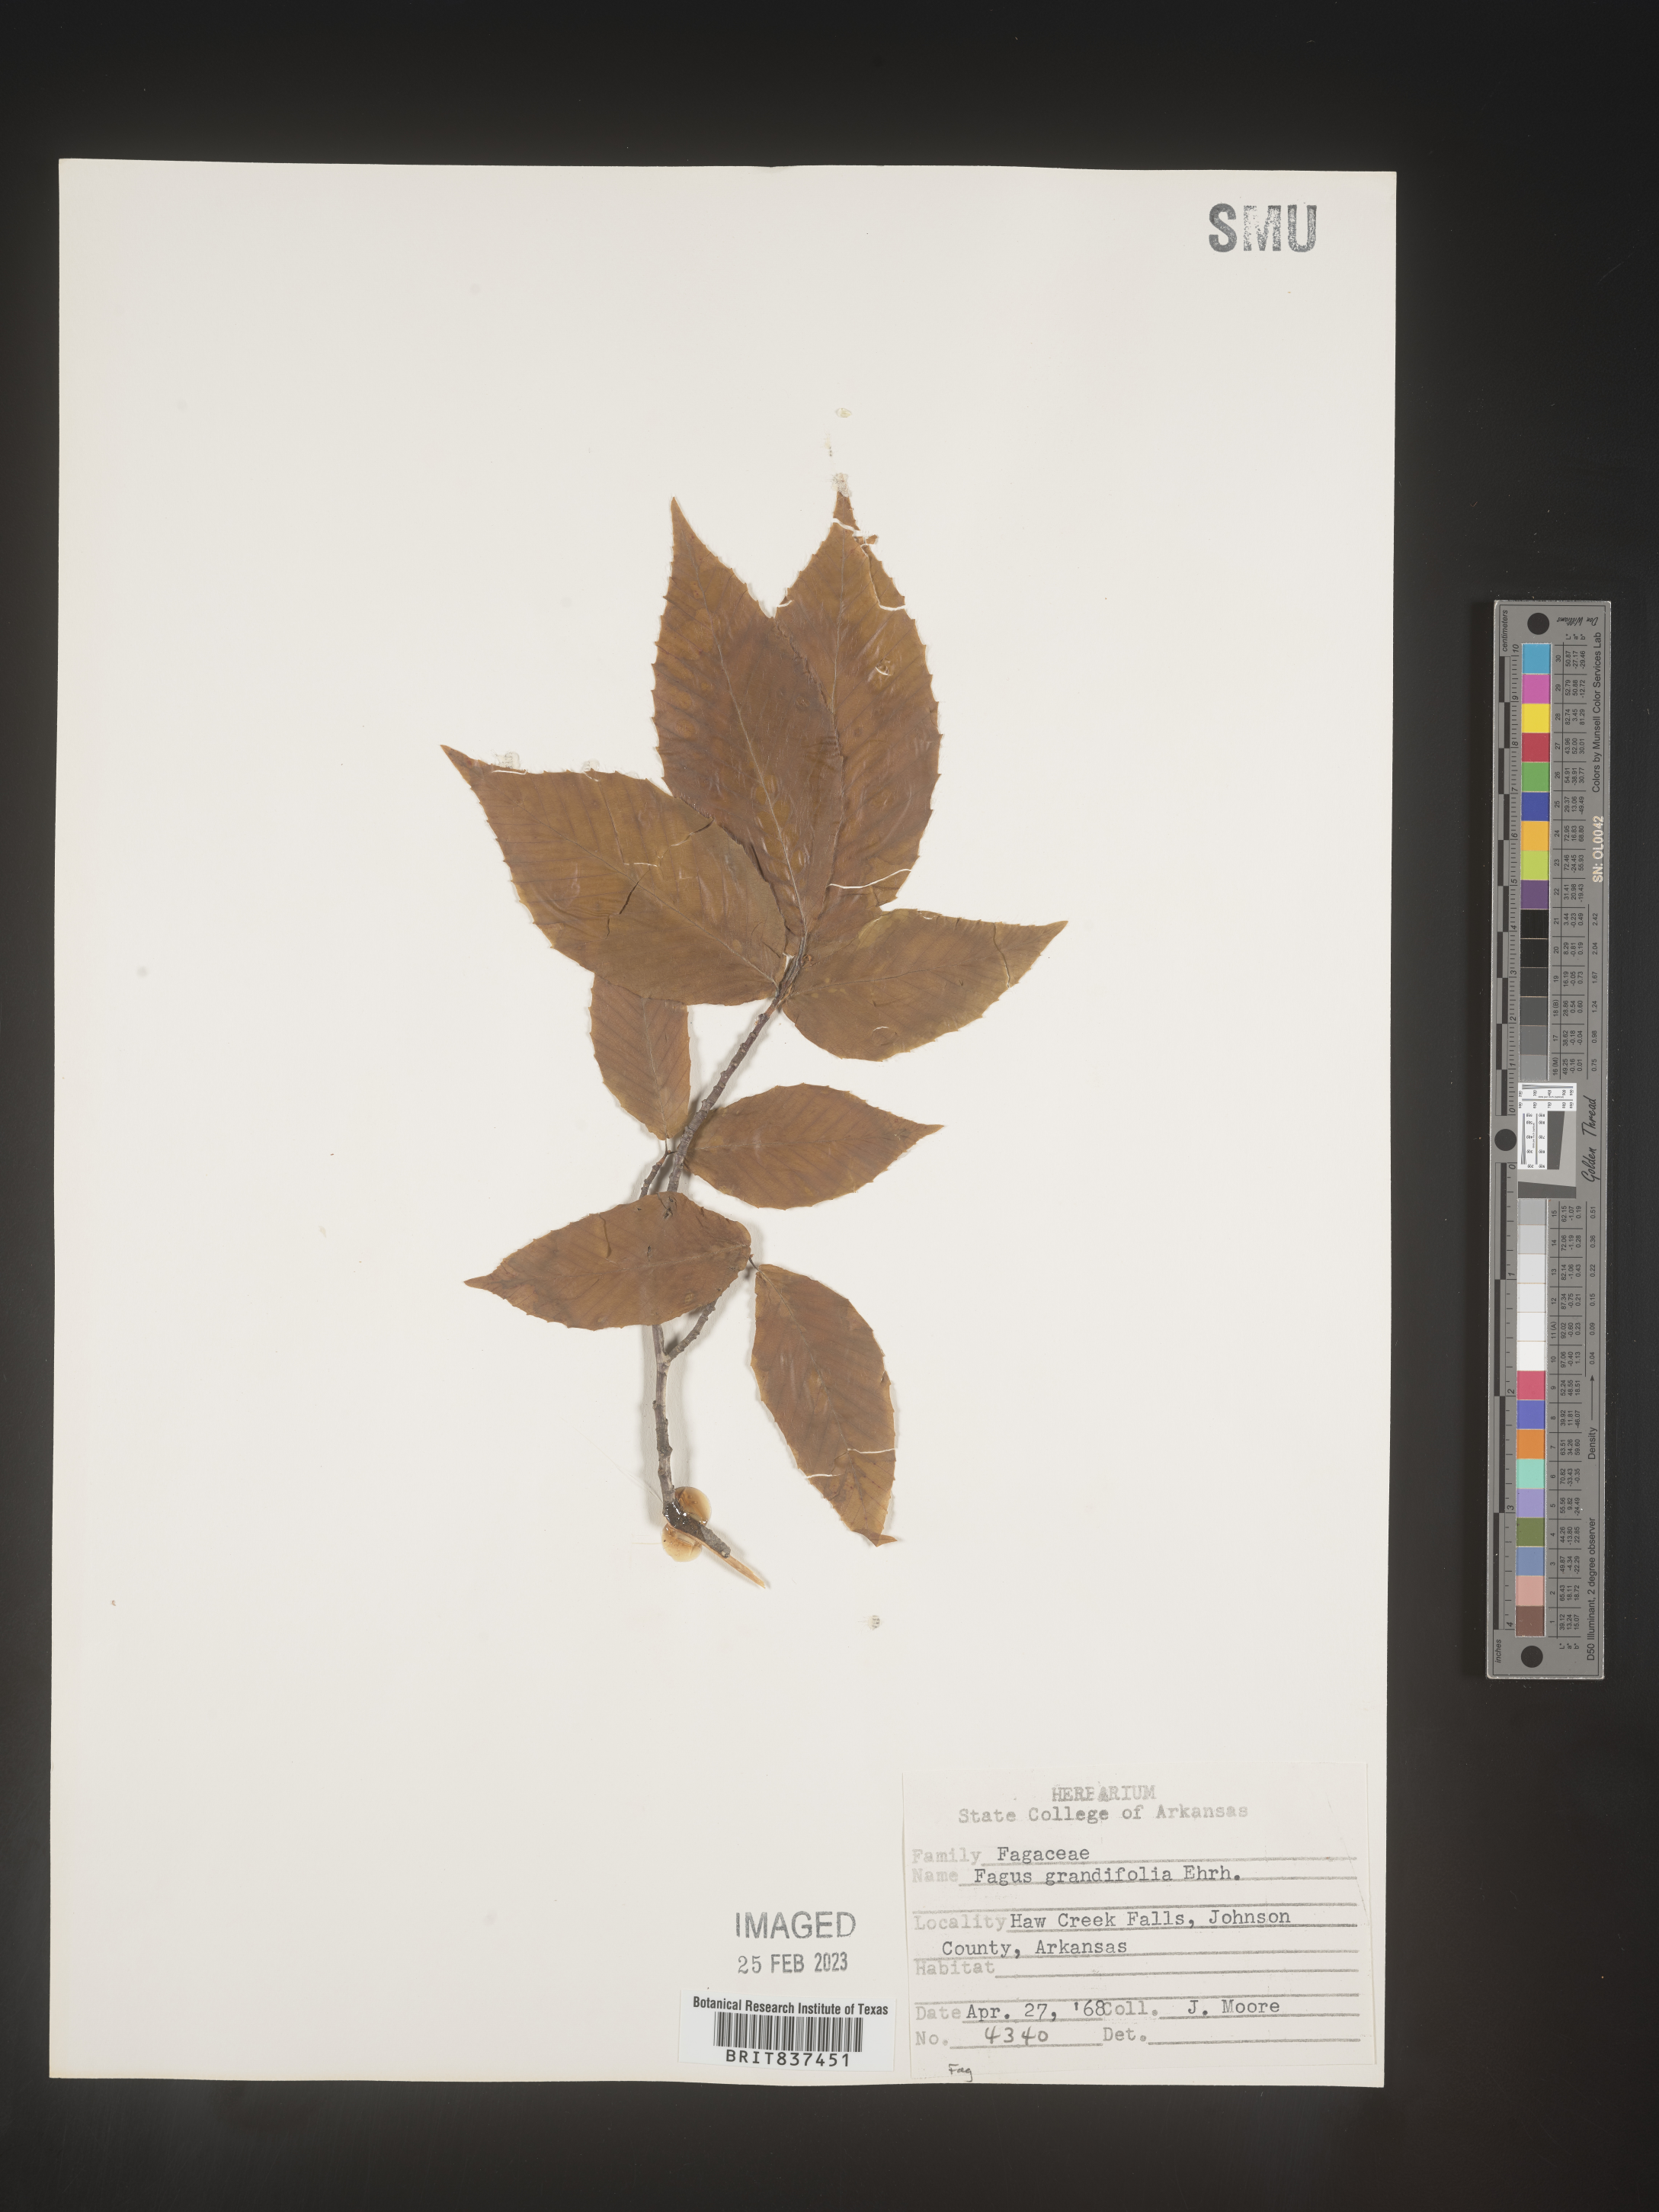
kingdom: Plantae
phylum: Tracheophyta
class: Magnoliopsida
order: Fagales
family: Fagaceae
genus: Fagus
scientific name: Fagus grandifolia
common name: American beech
